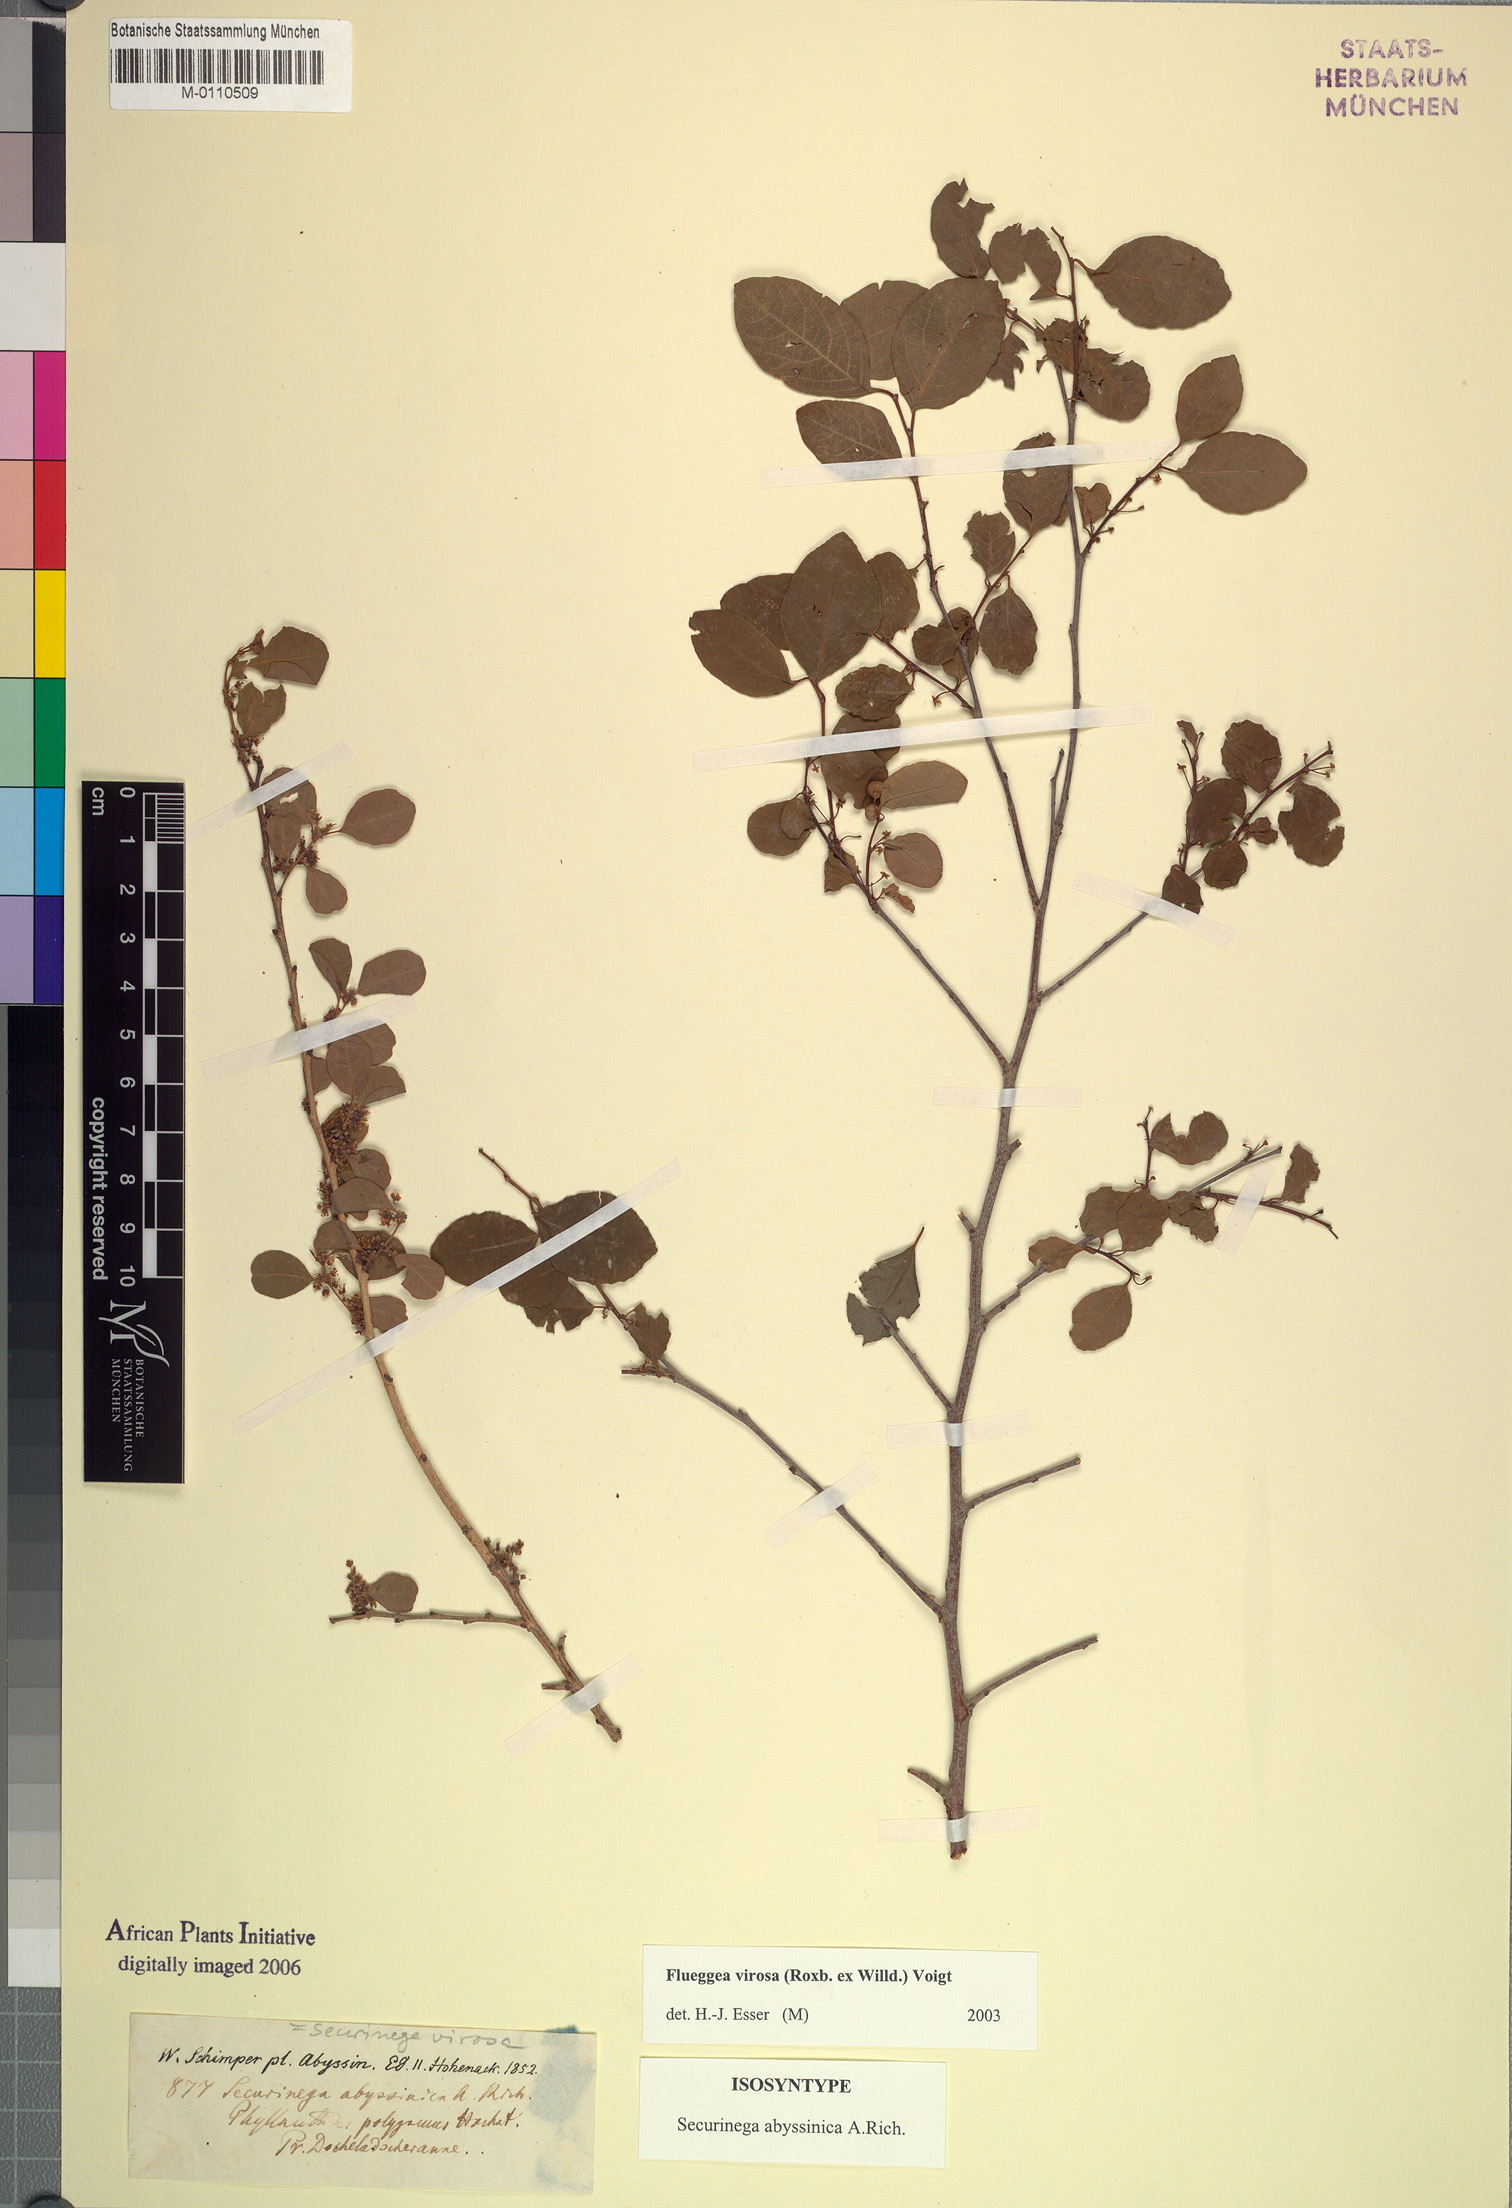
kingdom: Plantae
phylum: Tracheophyta
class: Magnoliopsida
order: Malpighiales
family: Phyllanthaceae
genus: Flueggea
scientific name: Flueggea virosa
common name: Common bushweed
